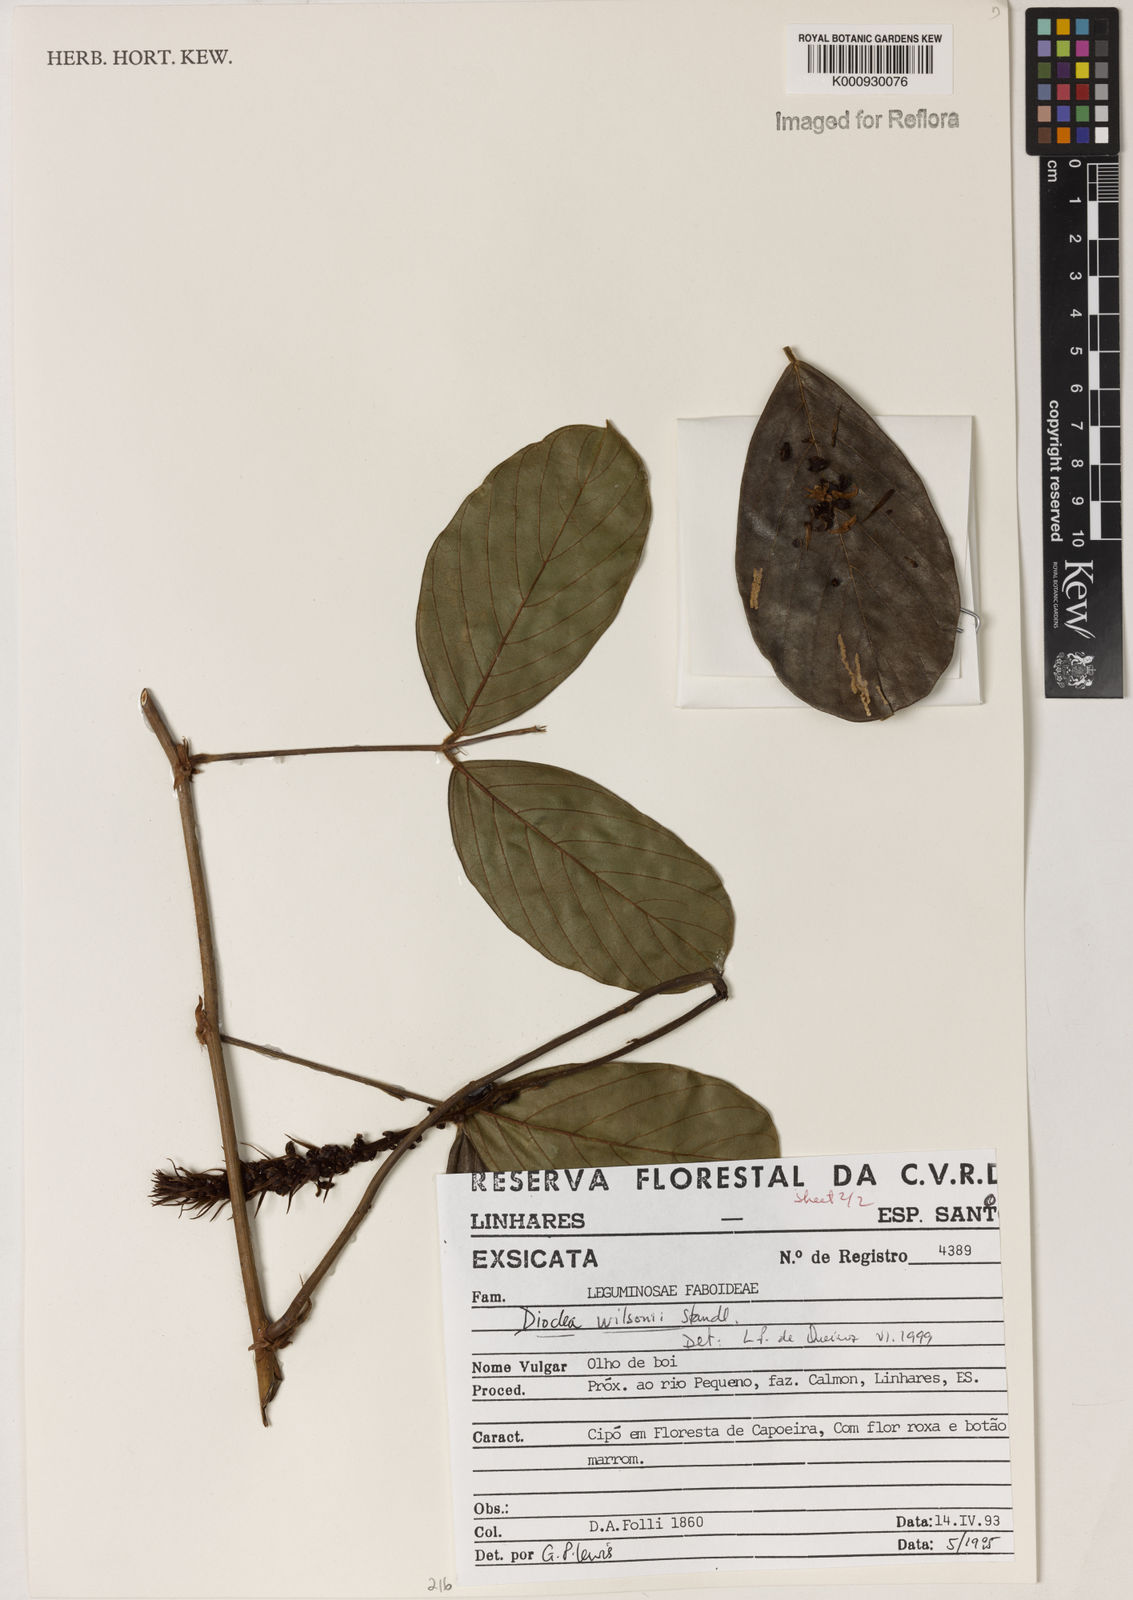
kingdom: Plantae
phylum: Tracheophyta
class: Magnoliopsida
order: Fabales
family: Fabaceae
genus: Macropsychanthus
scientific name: Macropsychanthus wilsonii
